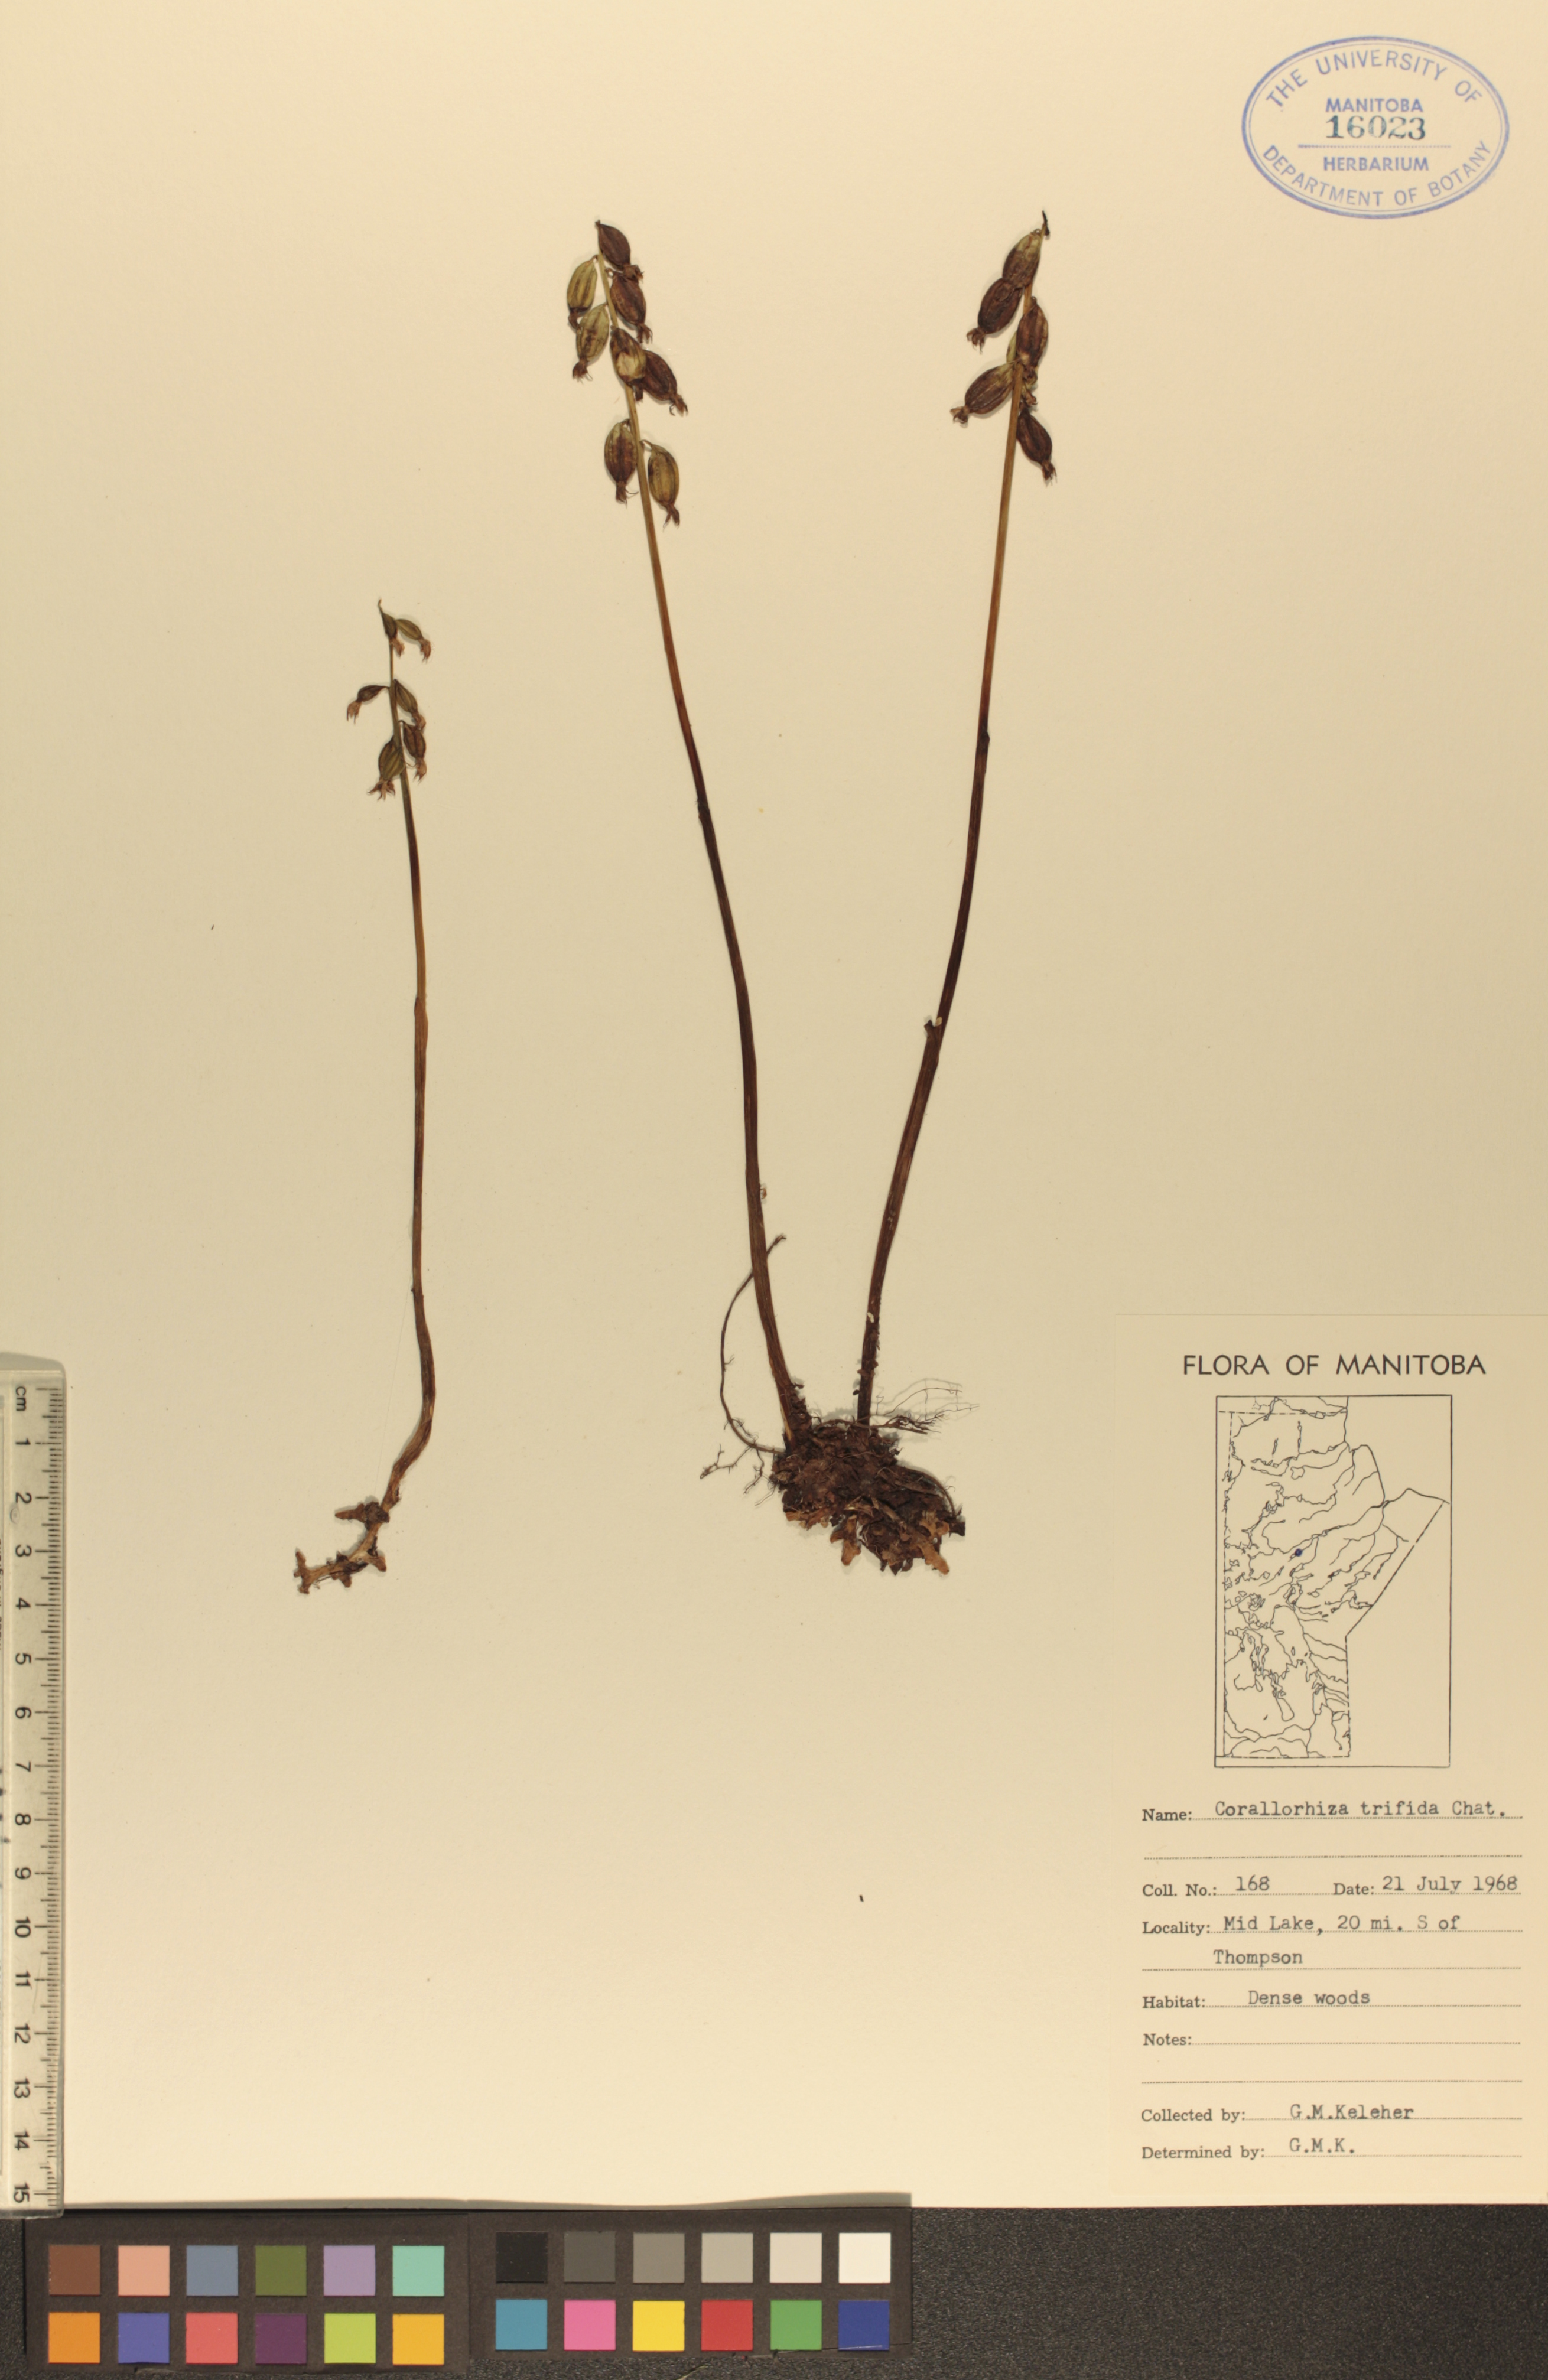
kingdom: Plantae
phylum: Tracheophyta
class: Liliopsida
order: Asparagales
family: Orchidaceae
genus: Corallorhiza
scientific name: Corallorhiza trifida
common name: Yellow coralroot
